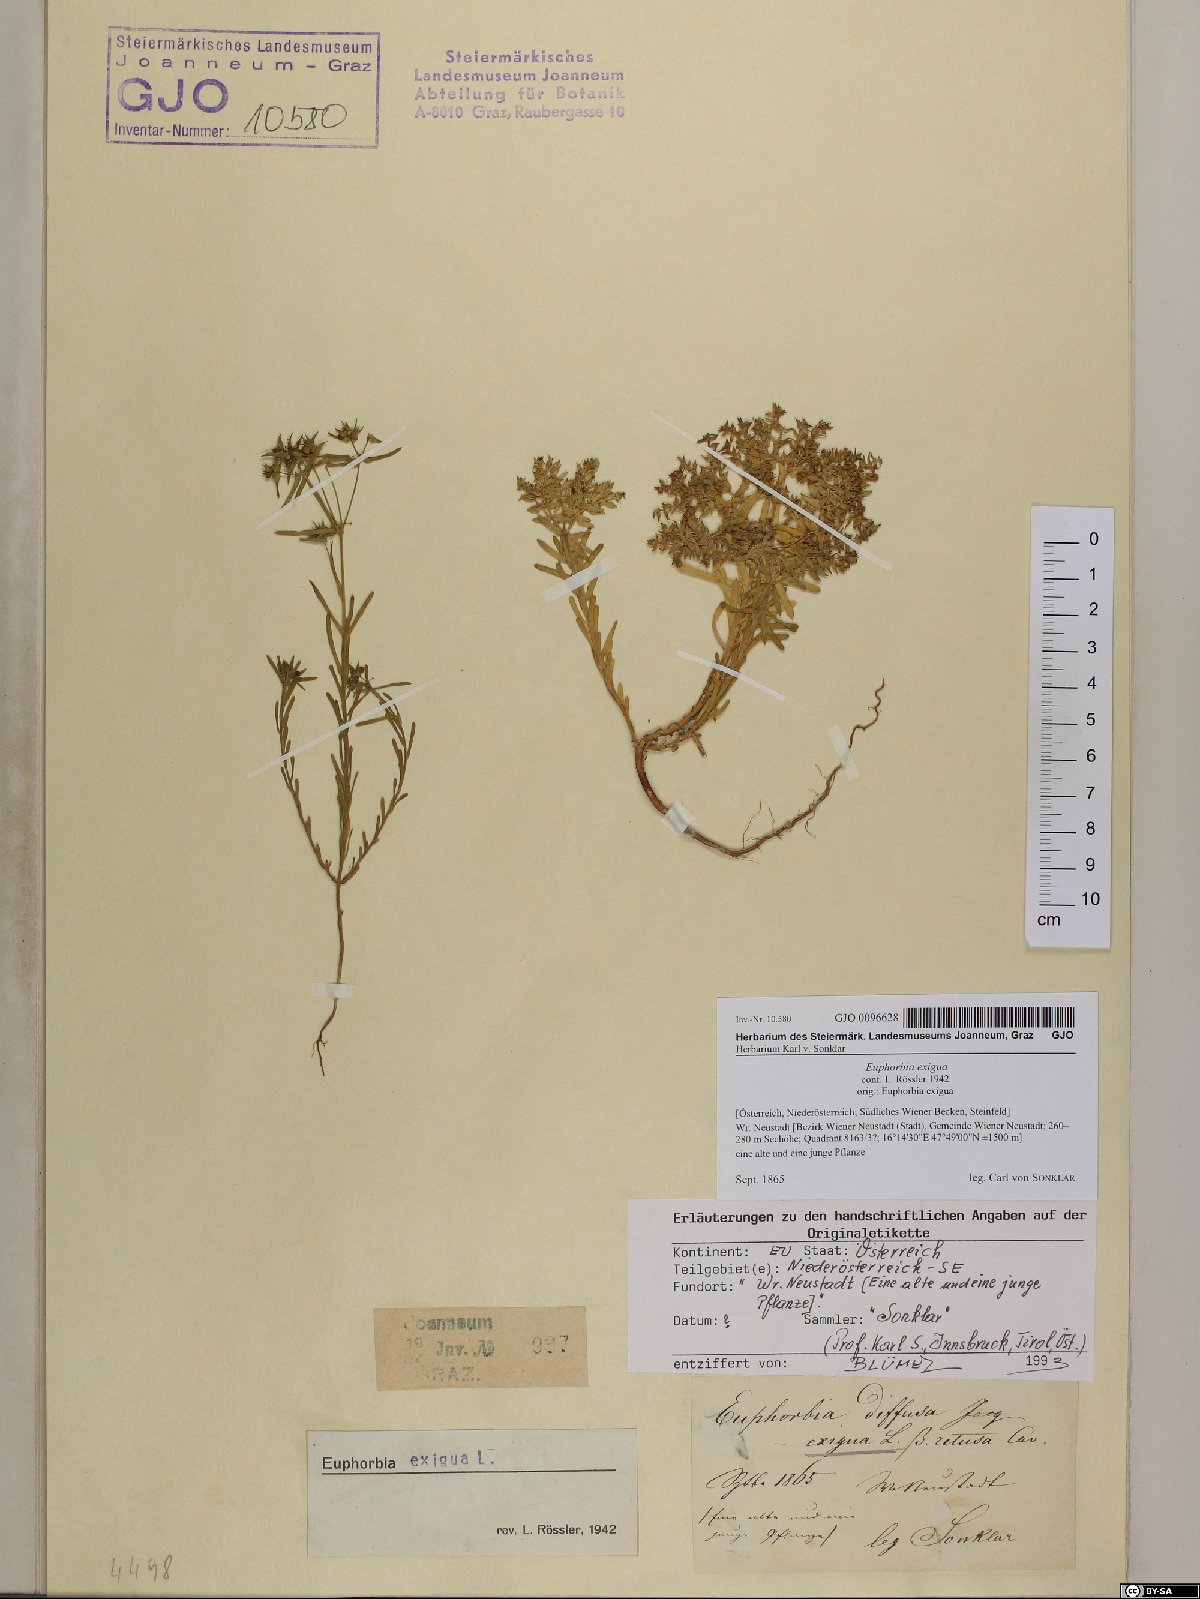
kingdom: Plantae
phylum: Tracheophyta
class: Magnoliopsida
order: Malpighiales
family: Euphorbiaceae
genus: Euphorbia
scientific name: Euphorbia exigua
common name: Dwarf spurge
